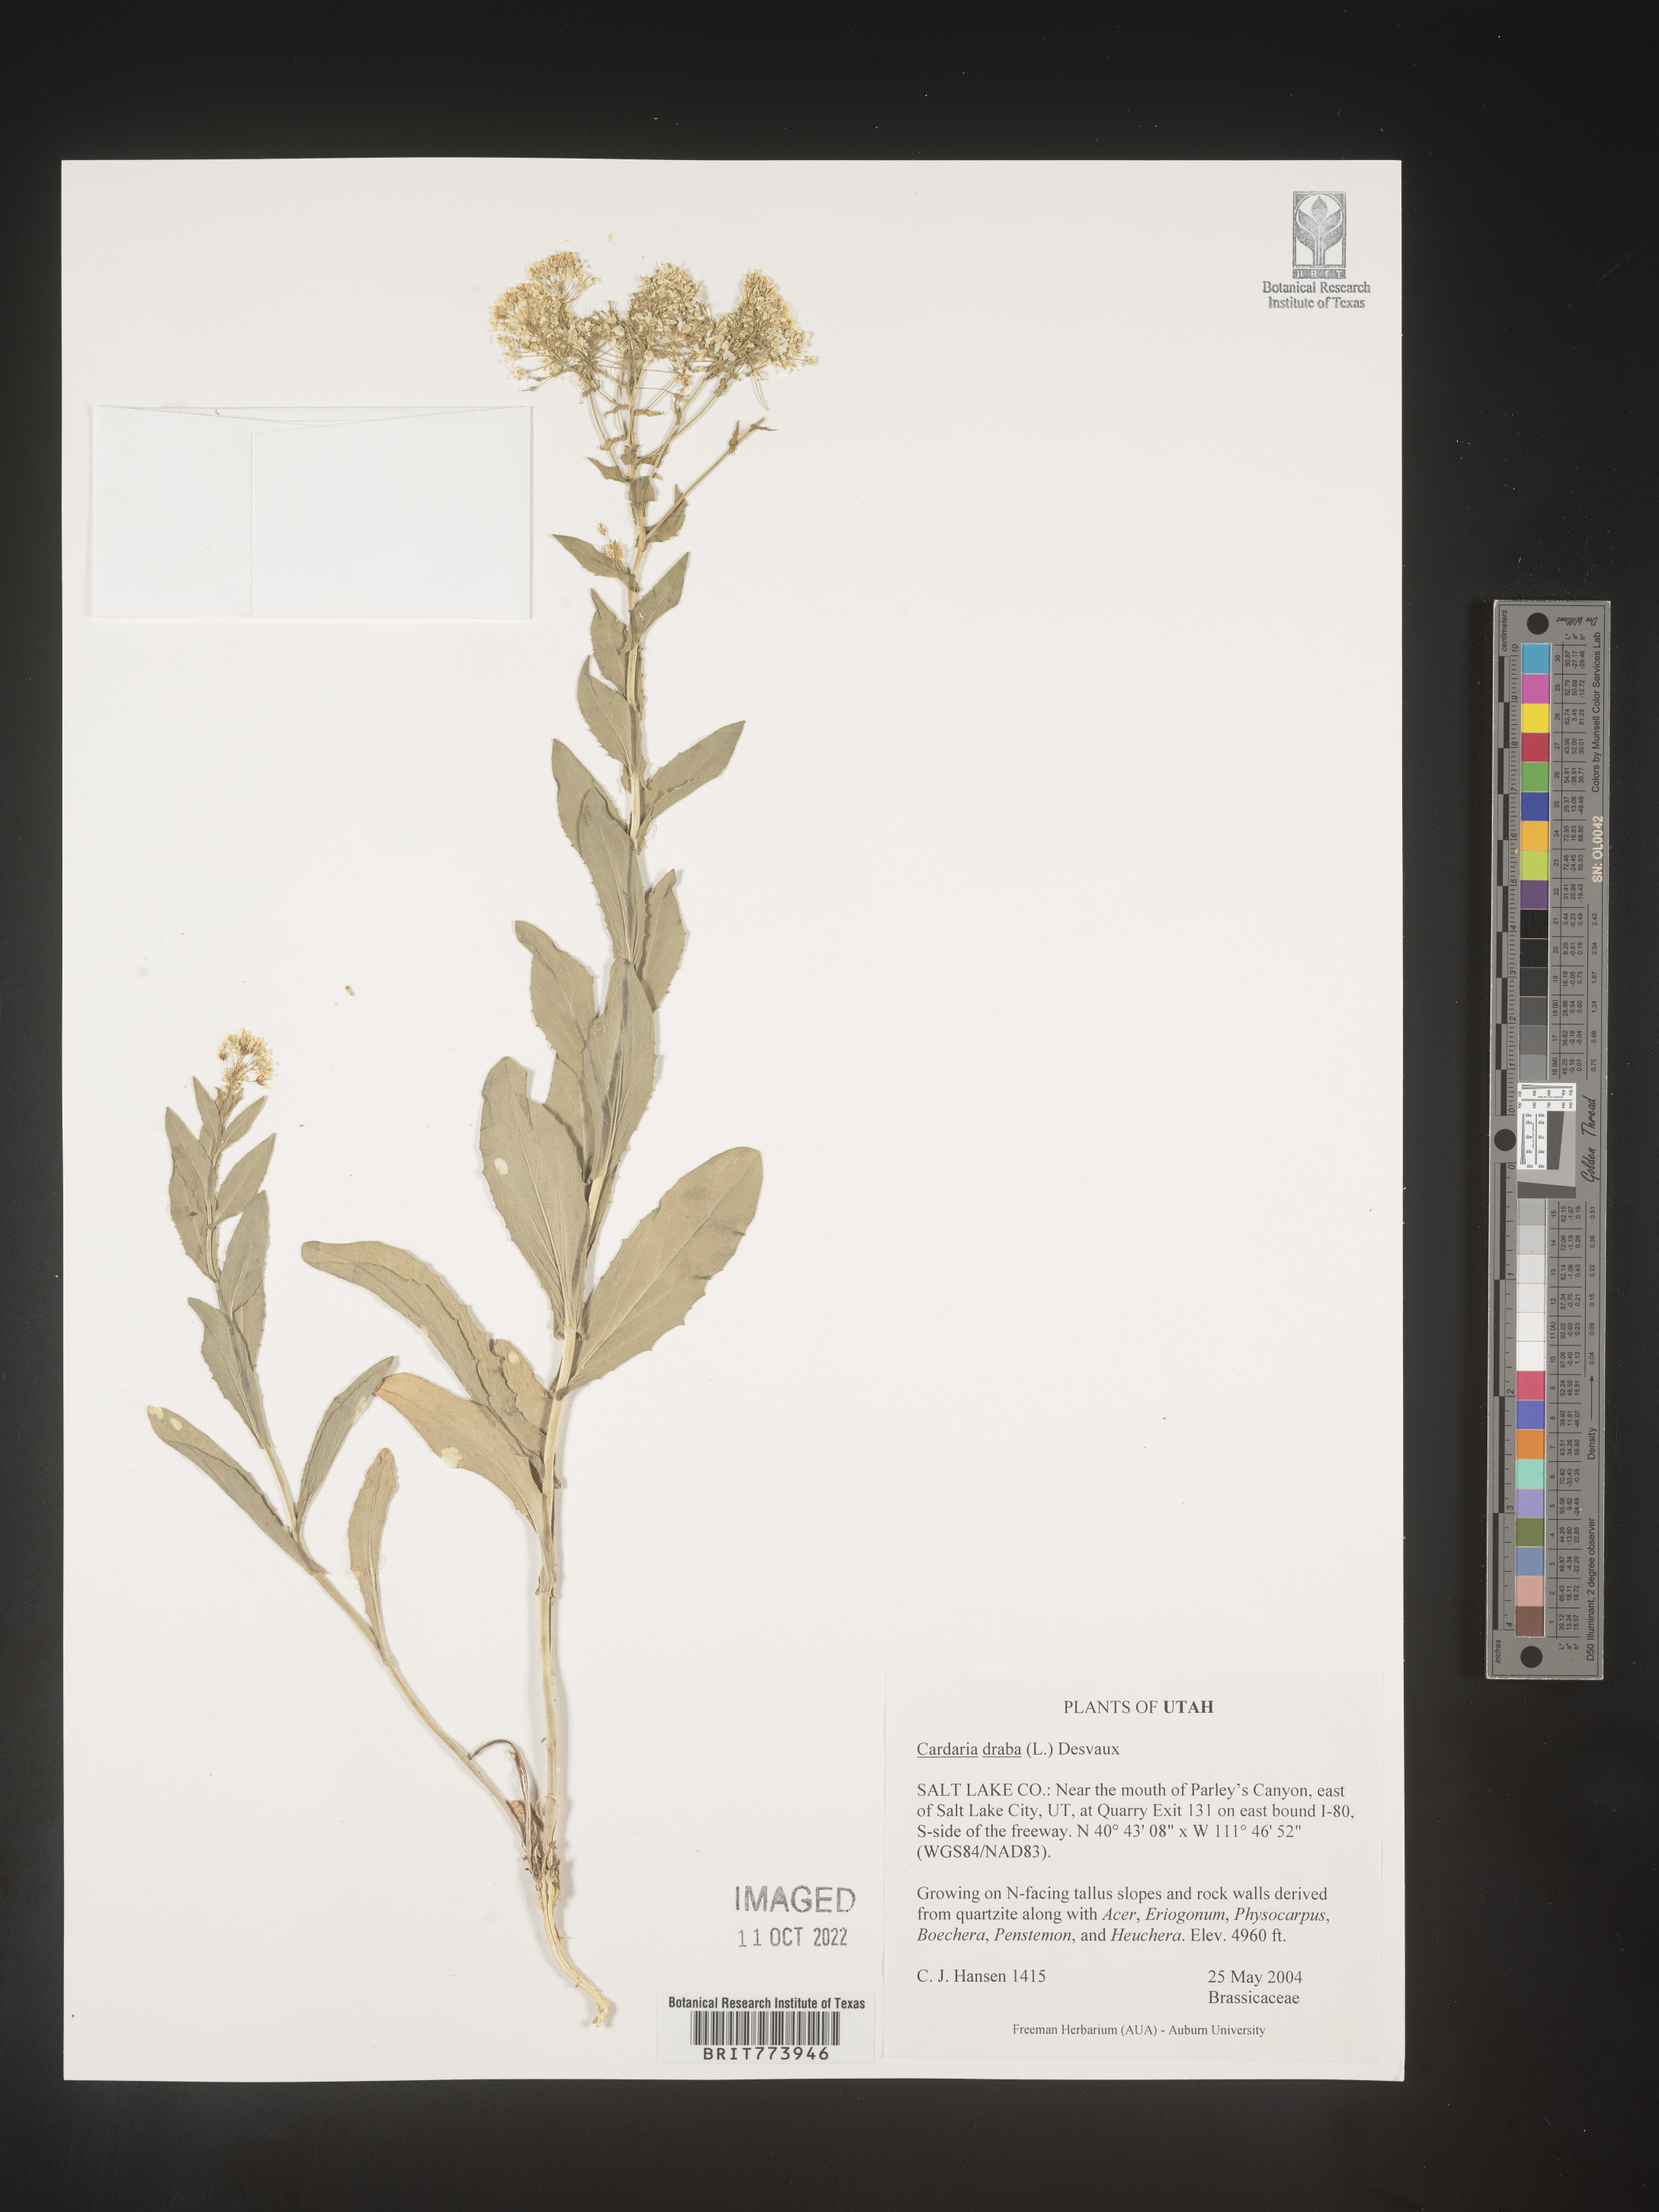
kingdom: Plantae
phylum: Tracheophyta
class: Magnoliopsida
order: Brassicales
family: Brassicaceae
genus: Lepidium
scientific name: Lepidium draba
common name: Hoary cress
